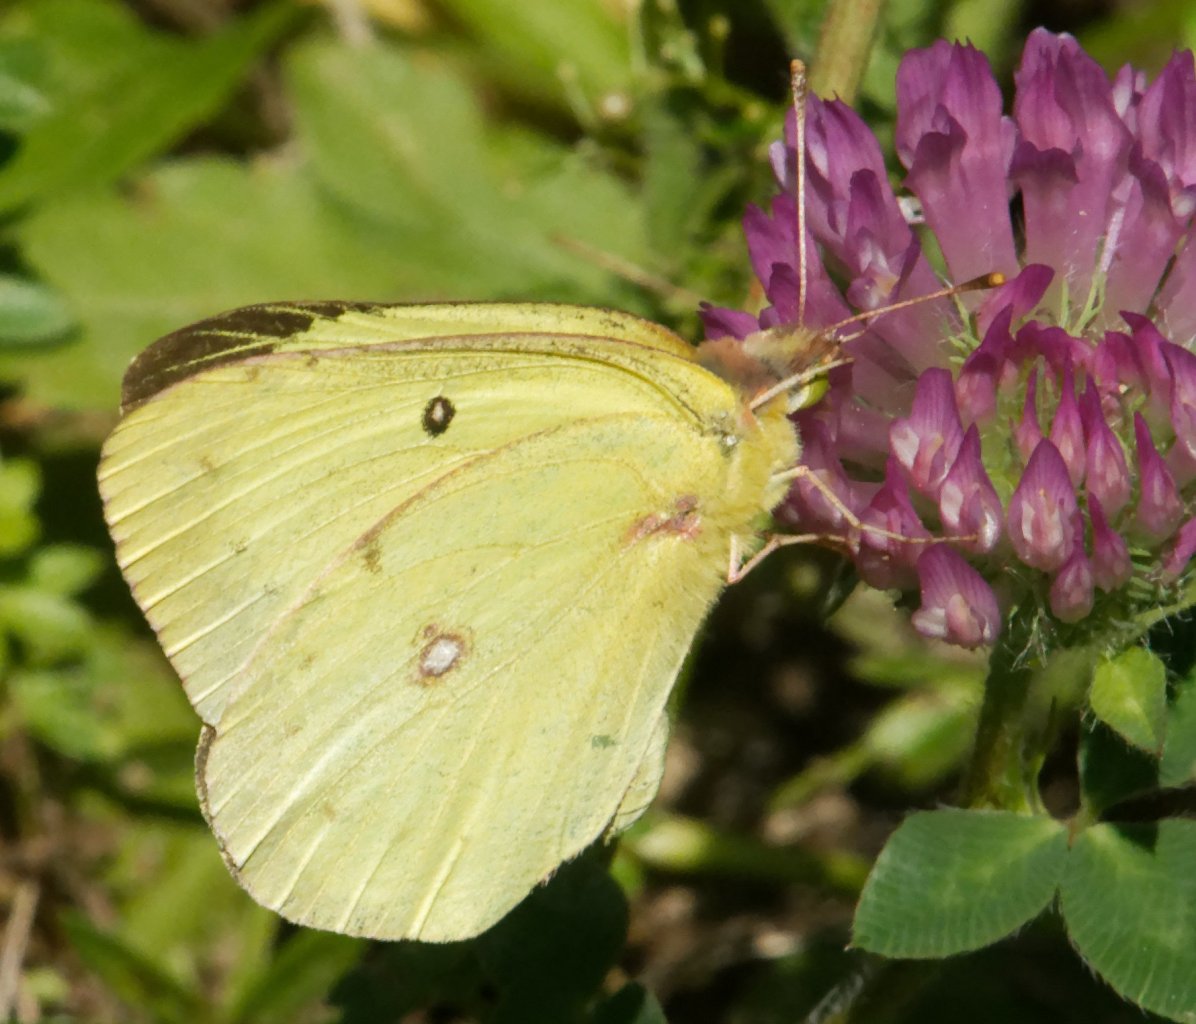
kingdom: Animalia
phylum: Arthropoda
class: Insecta
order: Lepidoptera
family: Pieridae
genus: Colias
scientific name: Colias philodice
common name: Clouded Sulphur
